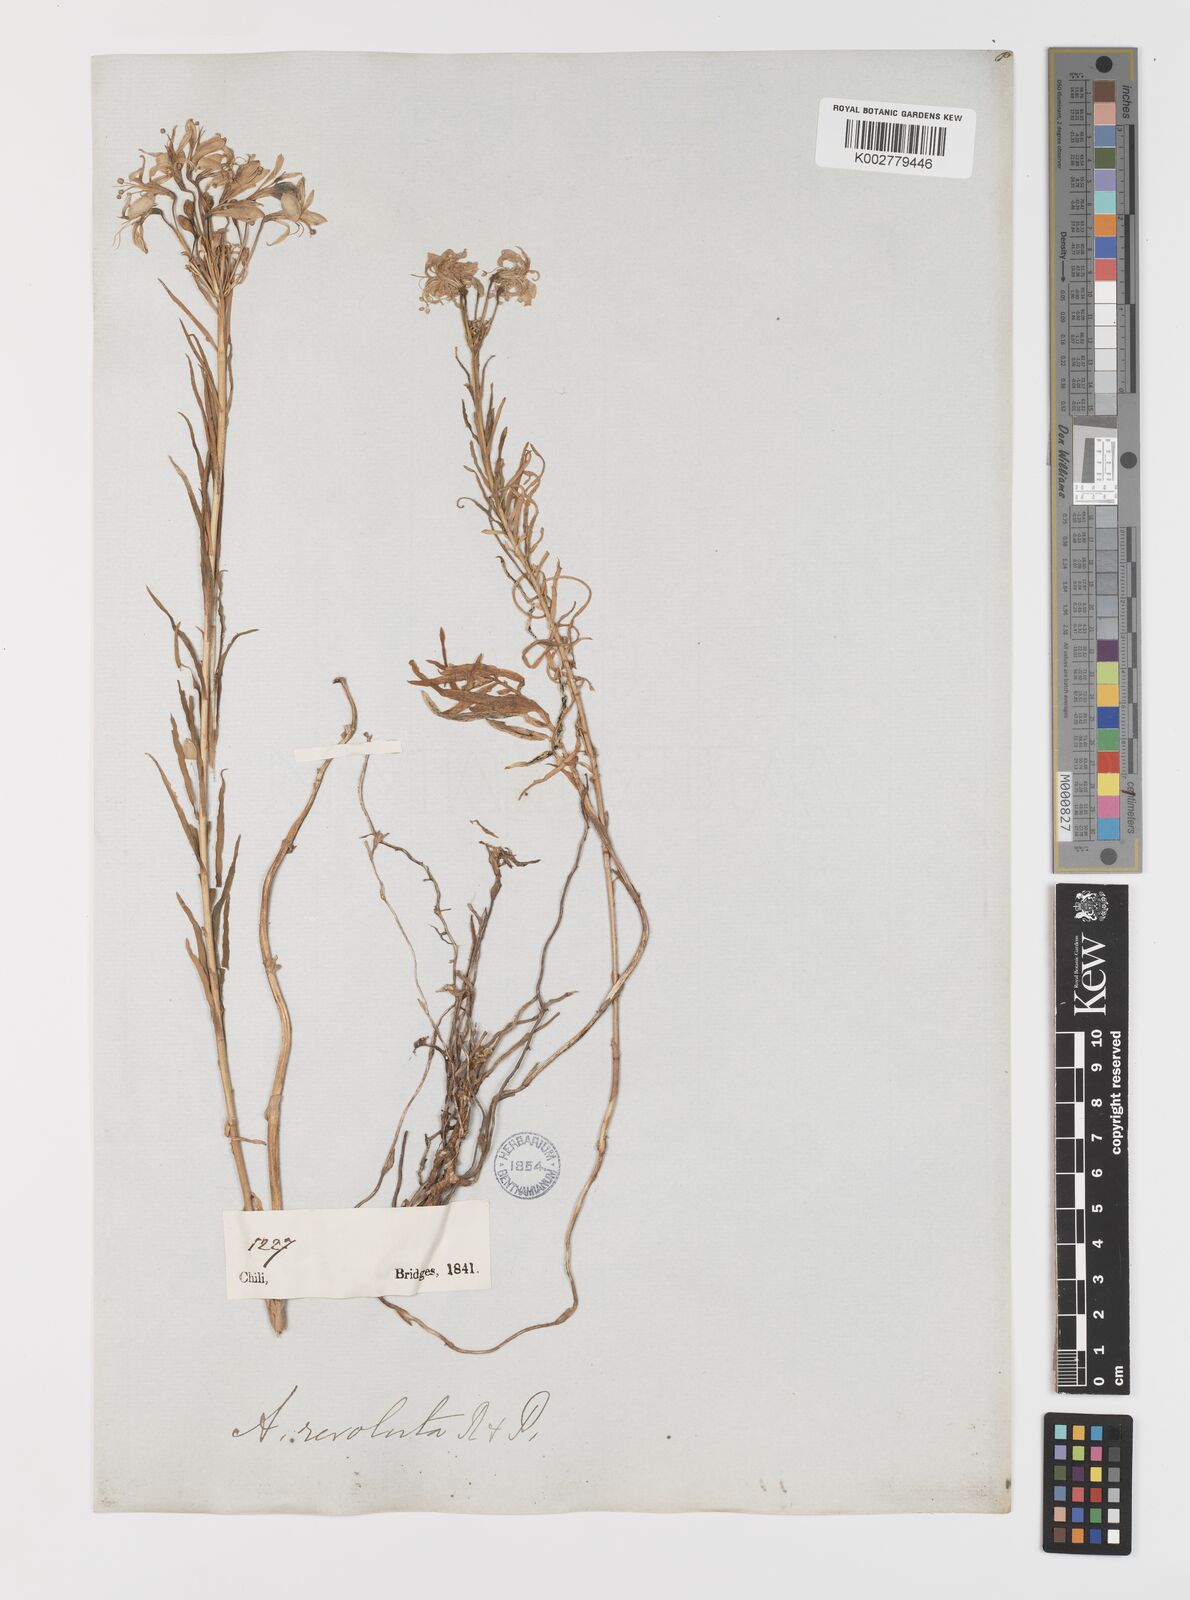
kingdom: Plantae
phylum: Tracheophyta
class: Liliopsida
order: Liliales
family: Alstroemeriaceae
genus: Alstroemeria
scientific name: Alstroemeria revoluta
